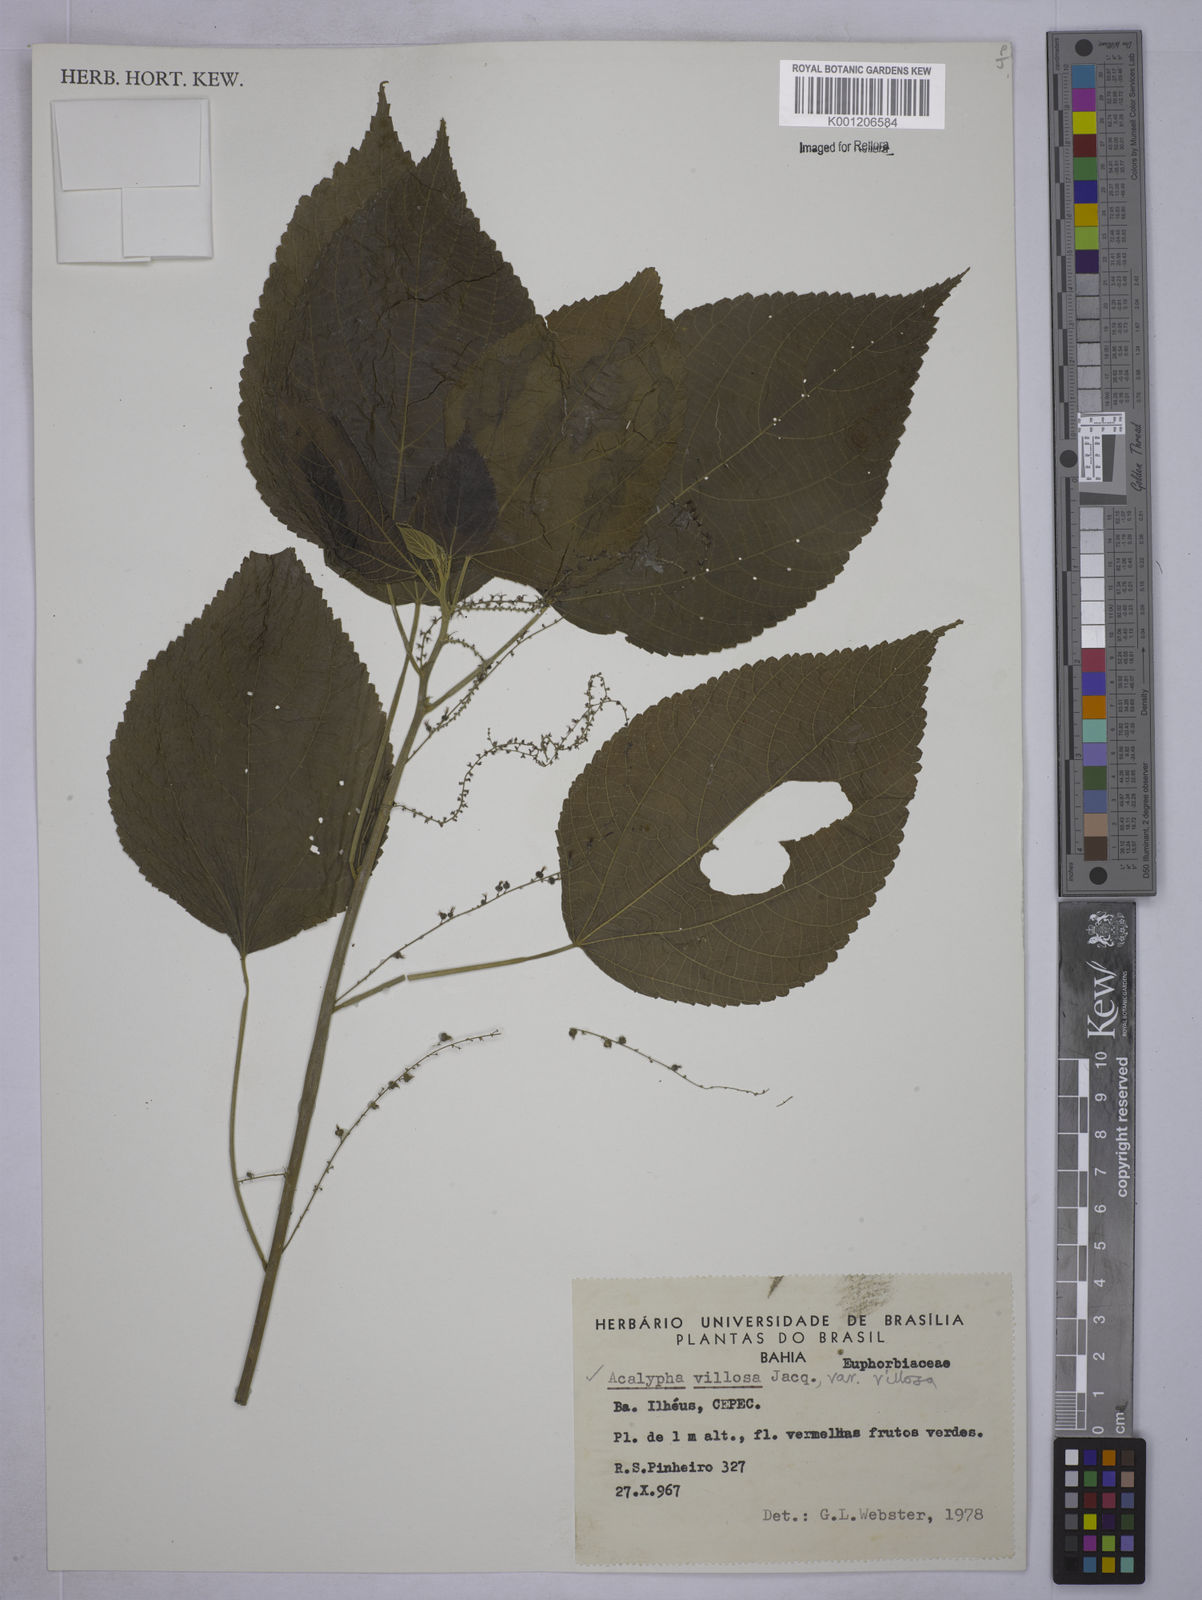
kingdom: Plantae
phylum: Tracheophyta
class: Magnoliopsida
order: Malpighiales
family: Euphorbiaceae
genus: Acalypha
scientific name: Acalypha villosa
